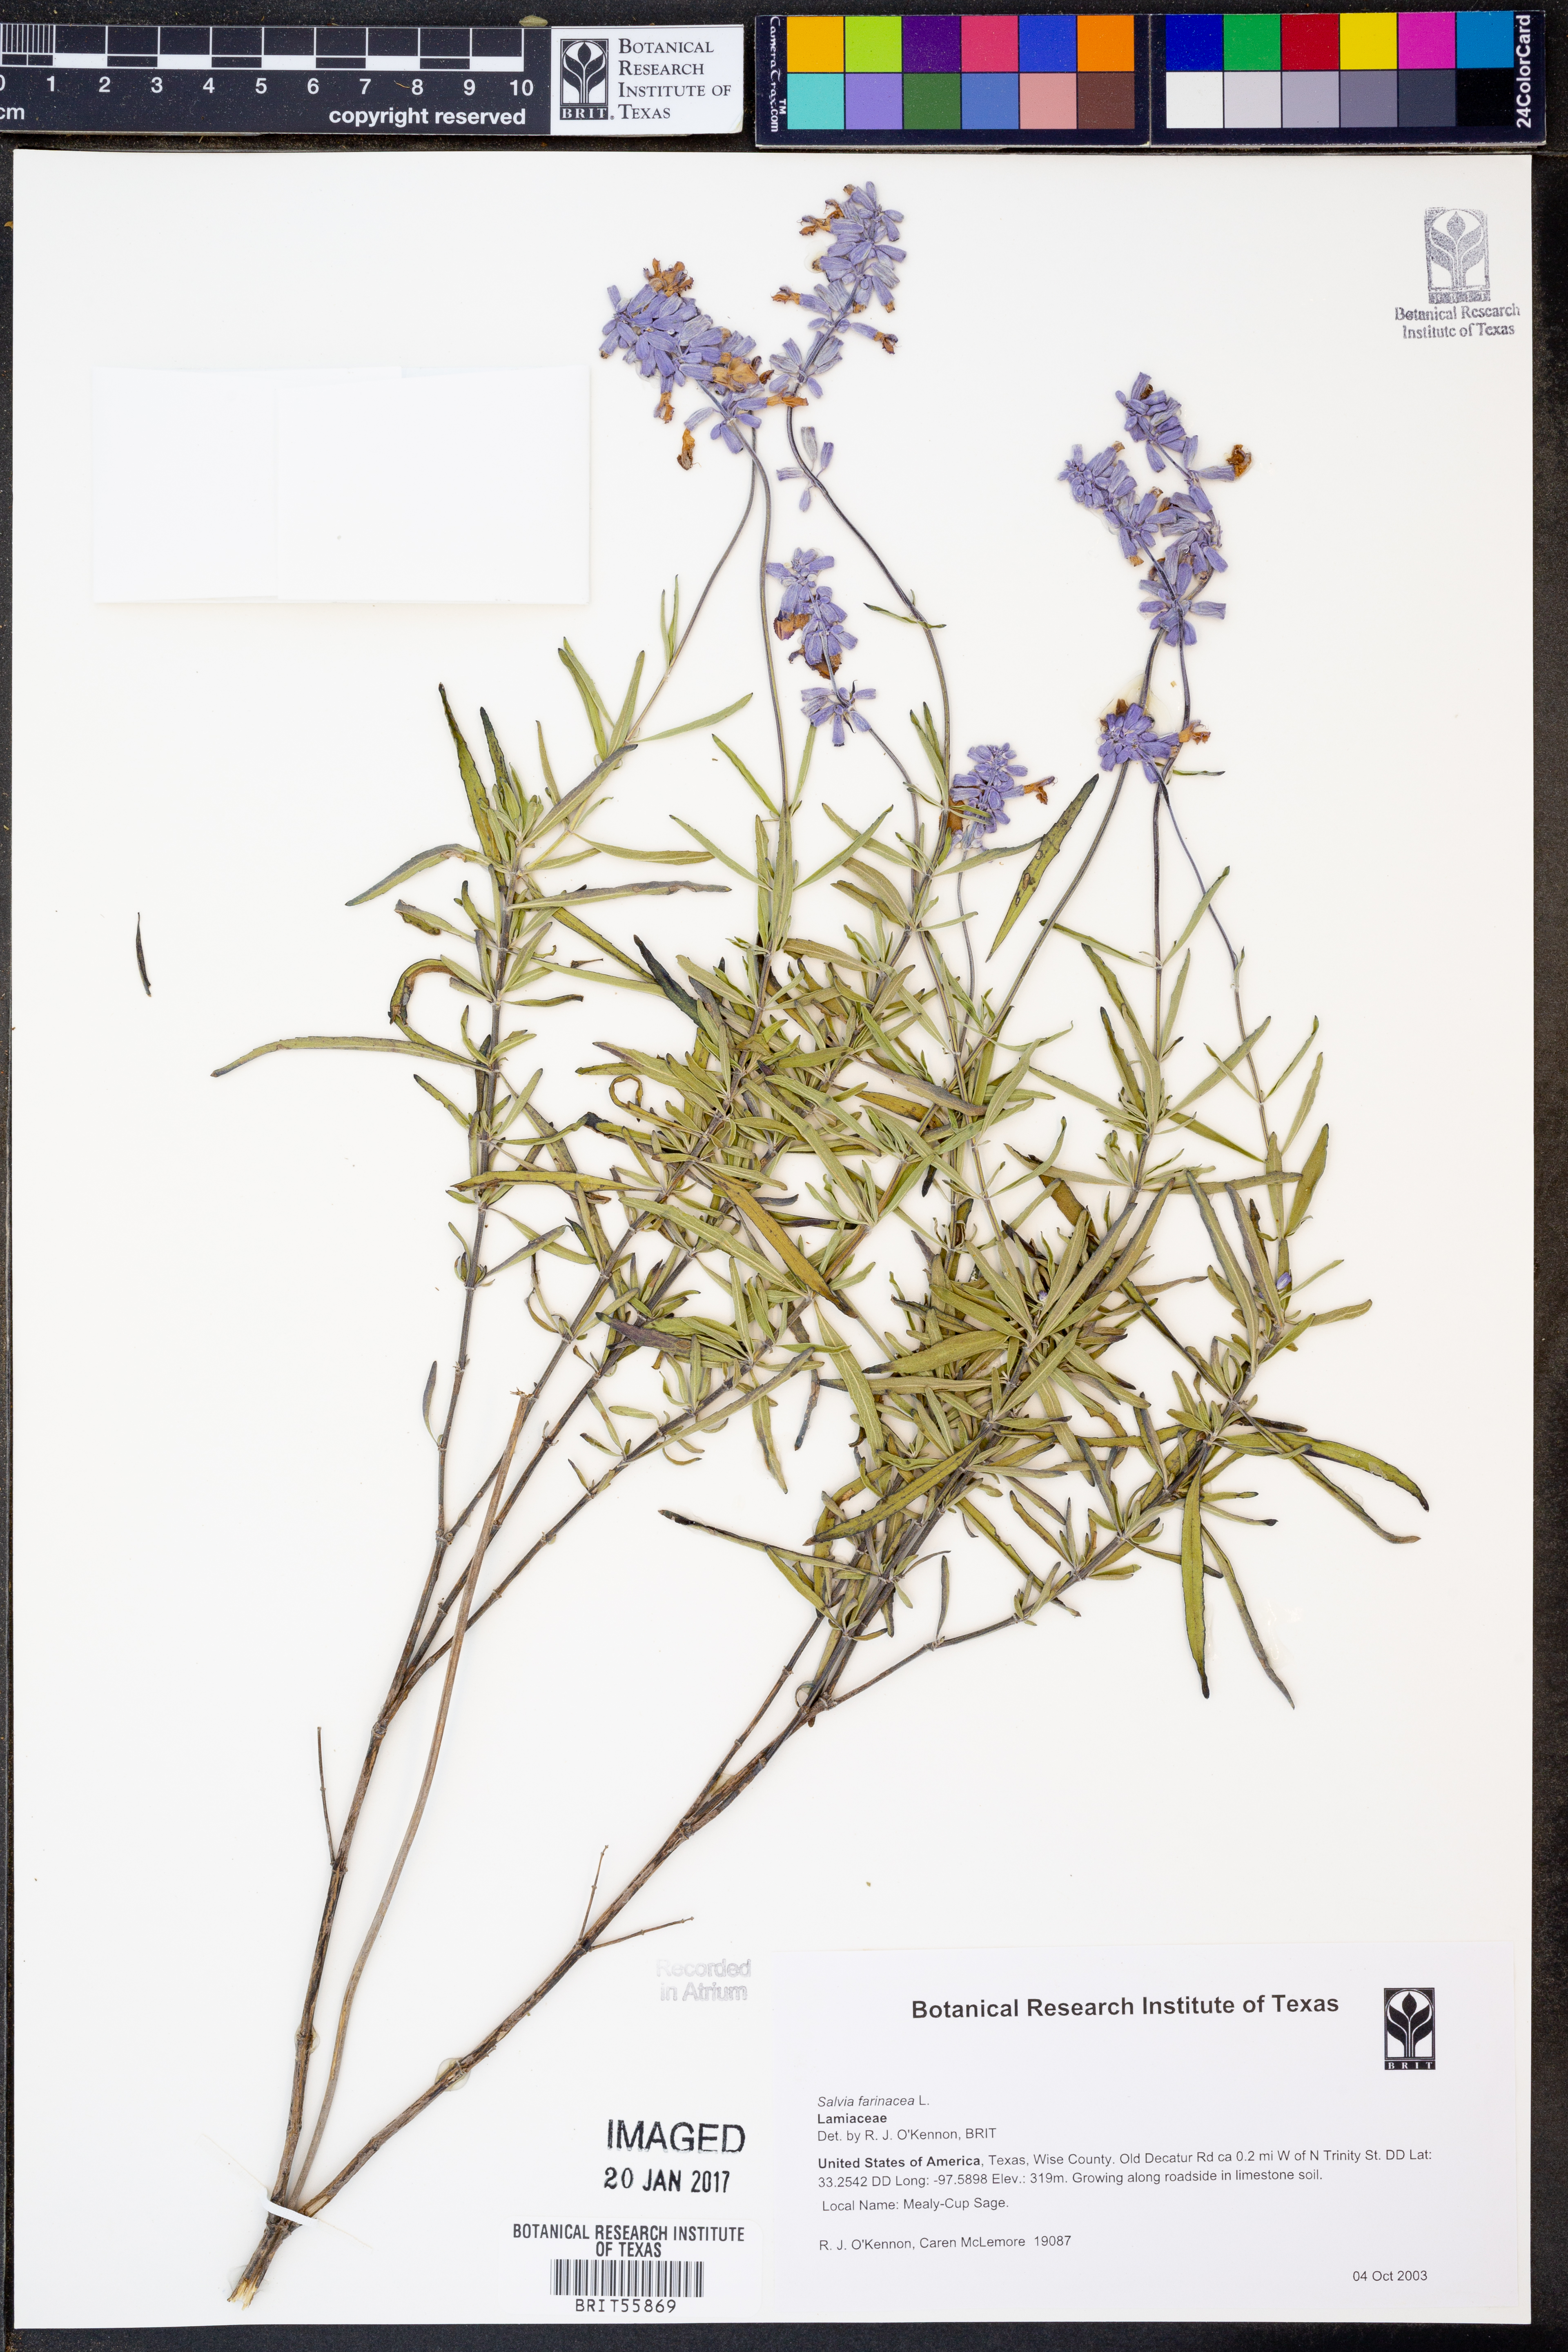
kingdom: Plantae
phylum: Tracheophyta
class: Magnoliopsida
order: Lamiales
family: Lamiaceae
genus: Salvia
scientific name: Salvia farinacea
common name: Mealy sage
